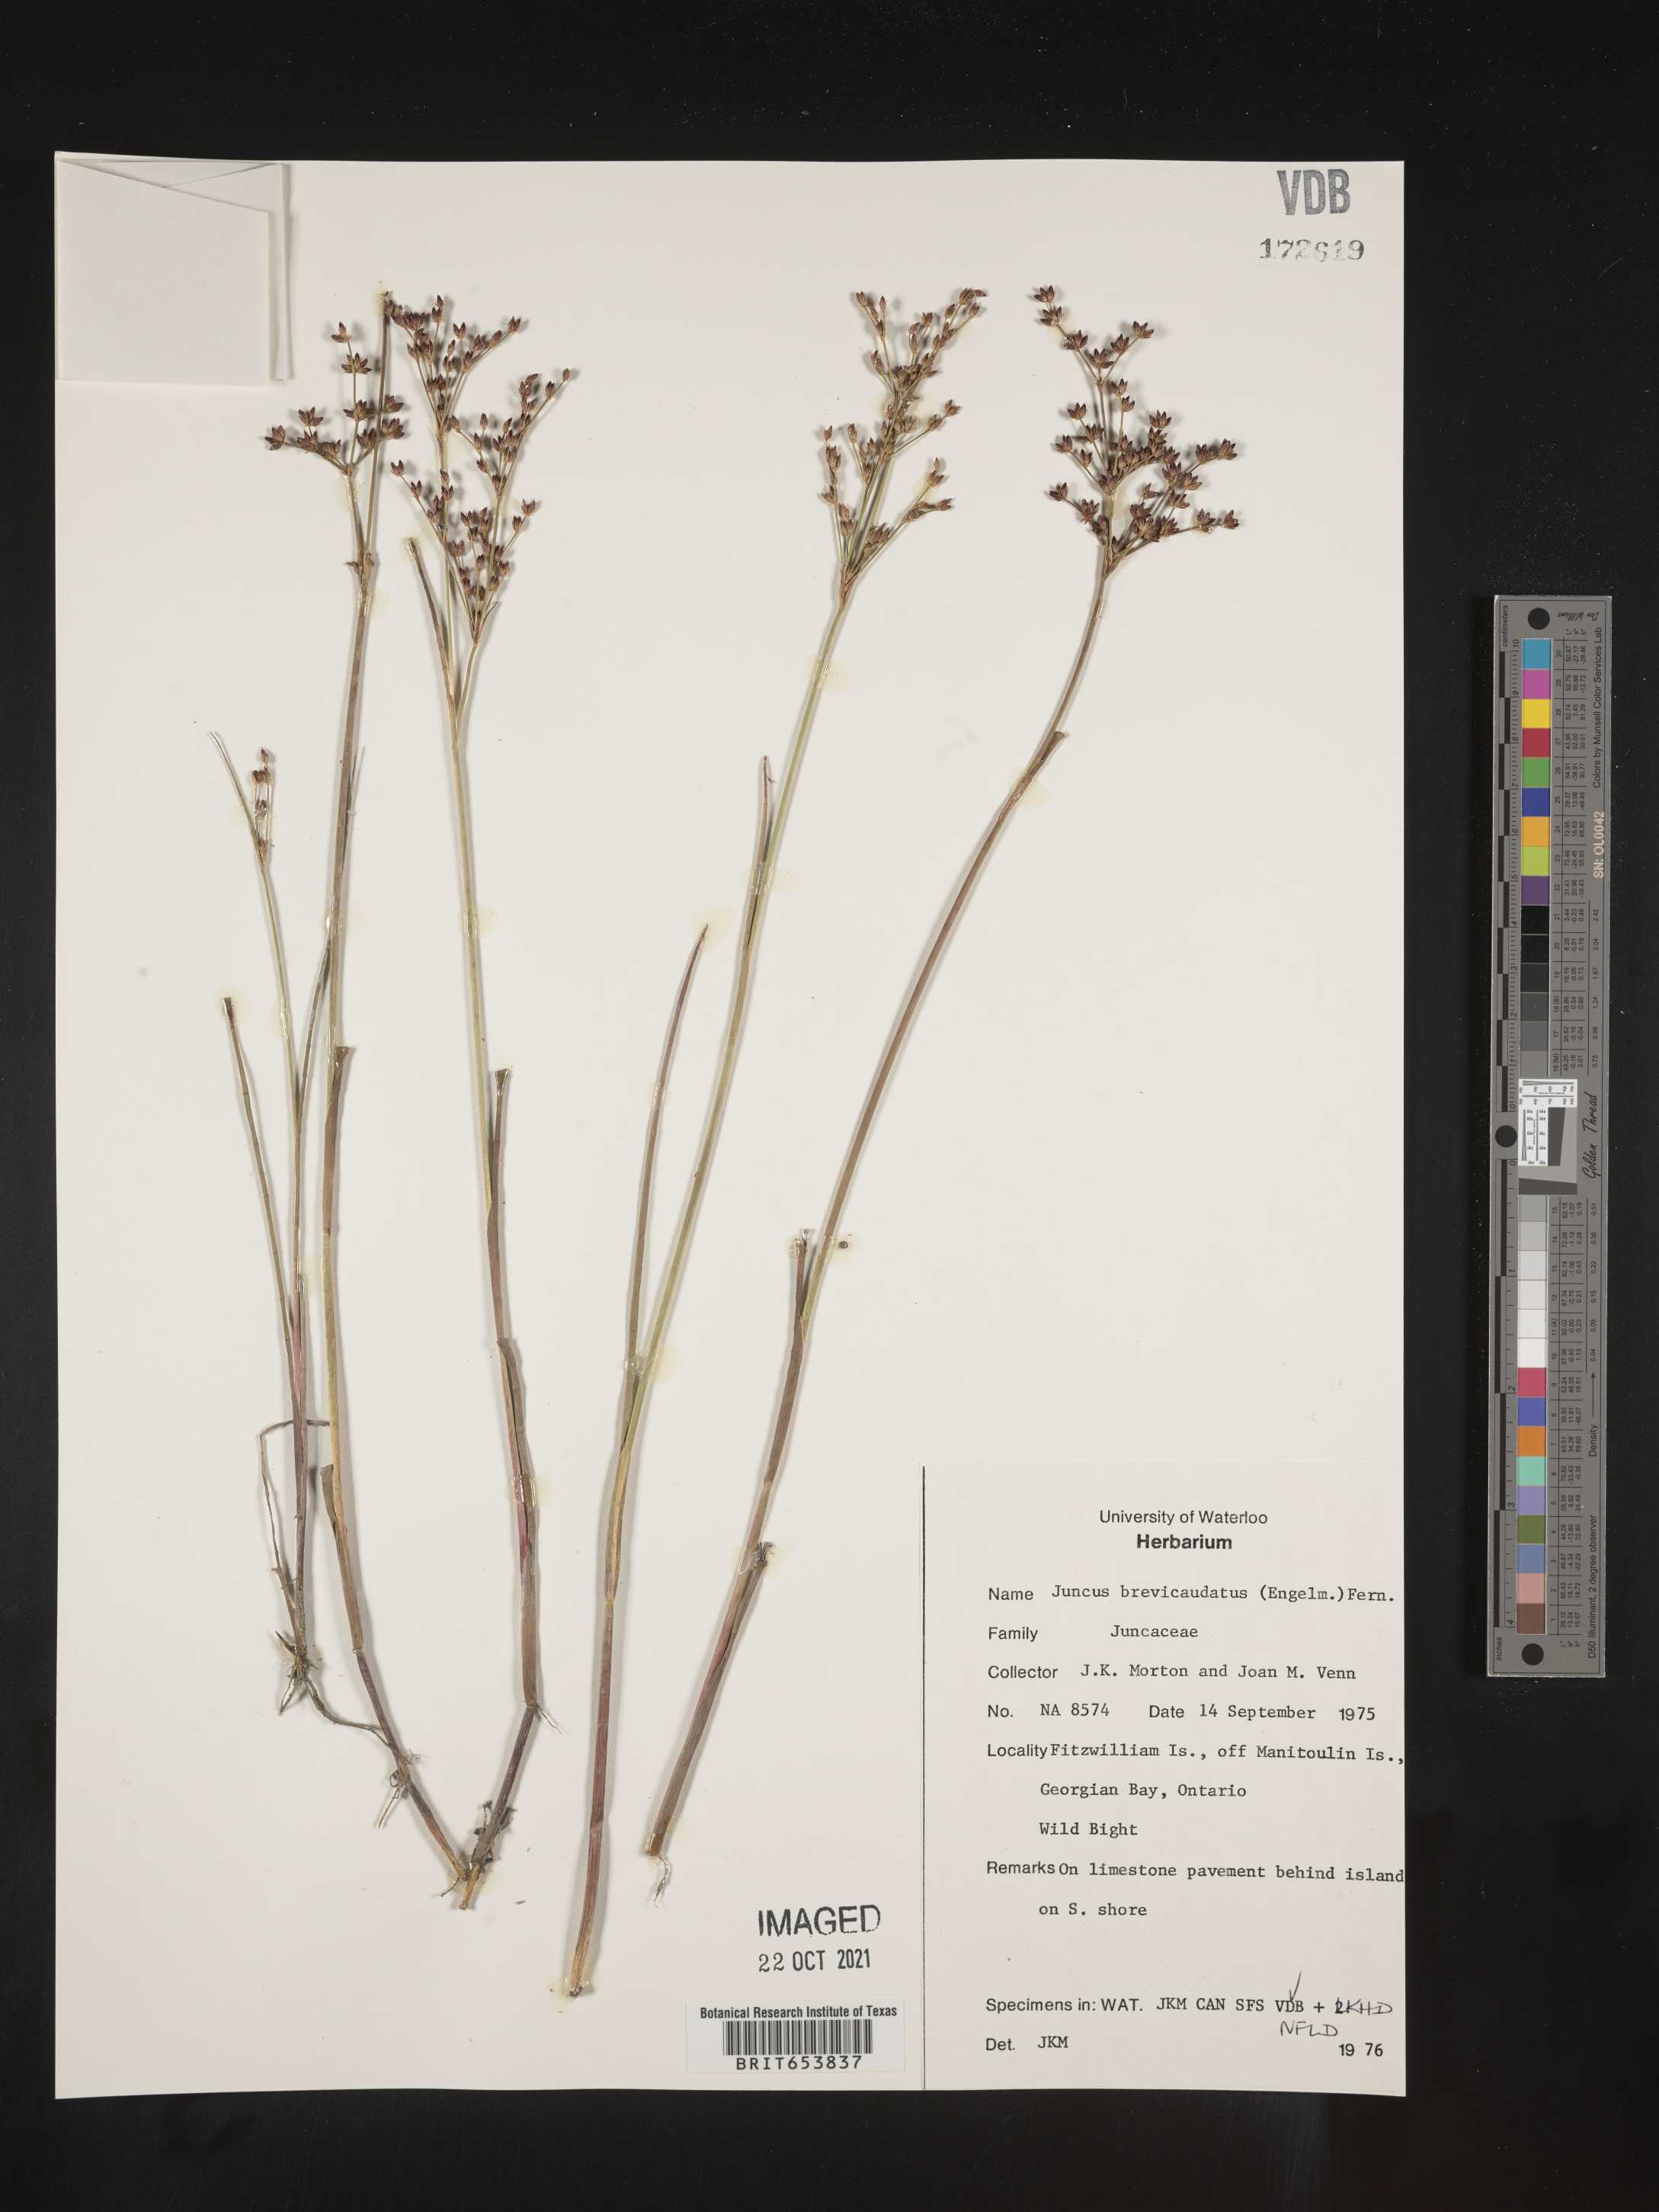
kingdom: Plantae
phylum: Tracheophyta
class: Liliopsida
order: Poales
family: Juncaceae
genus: Juncus
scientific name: Juncus brevicaudatus
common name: Narrow-panicle rush
